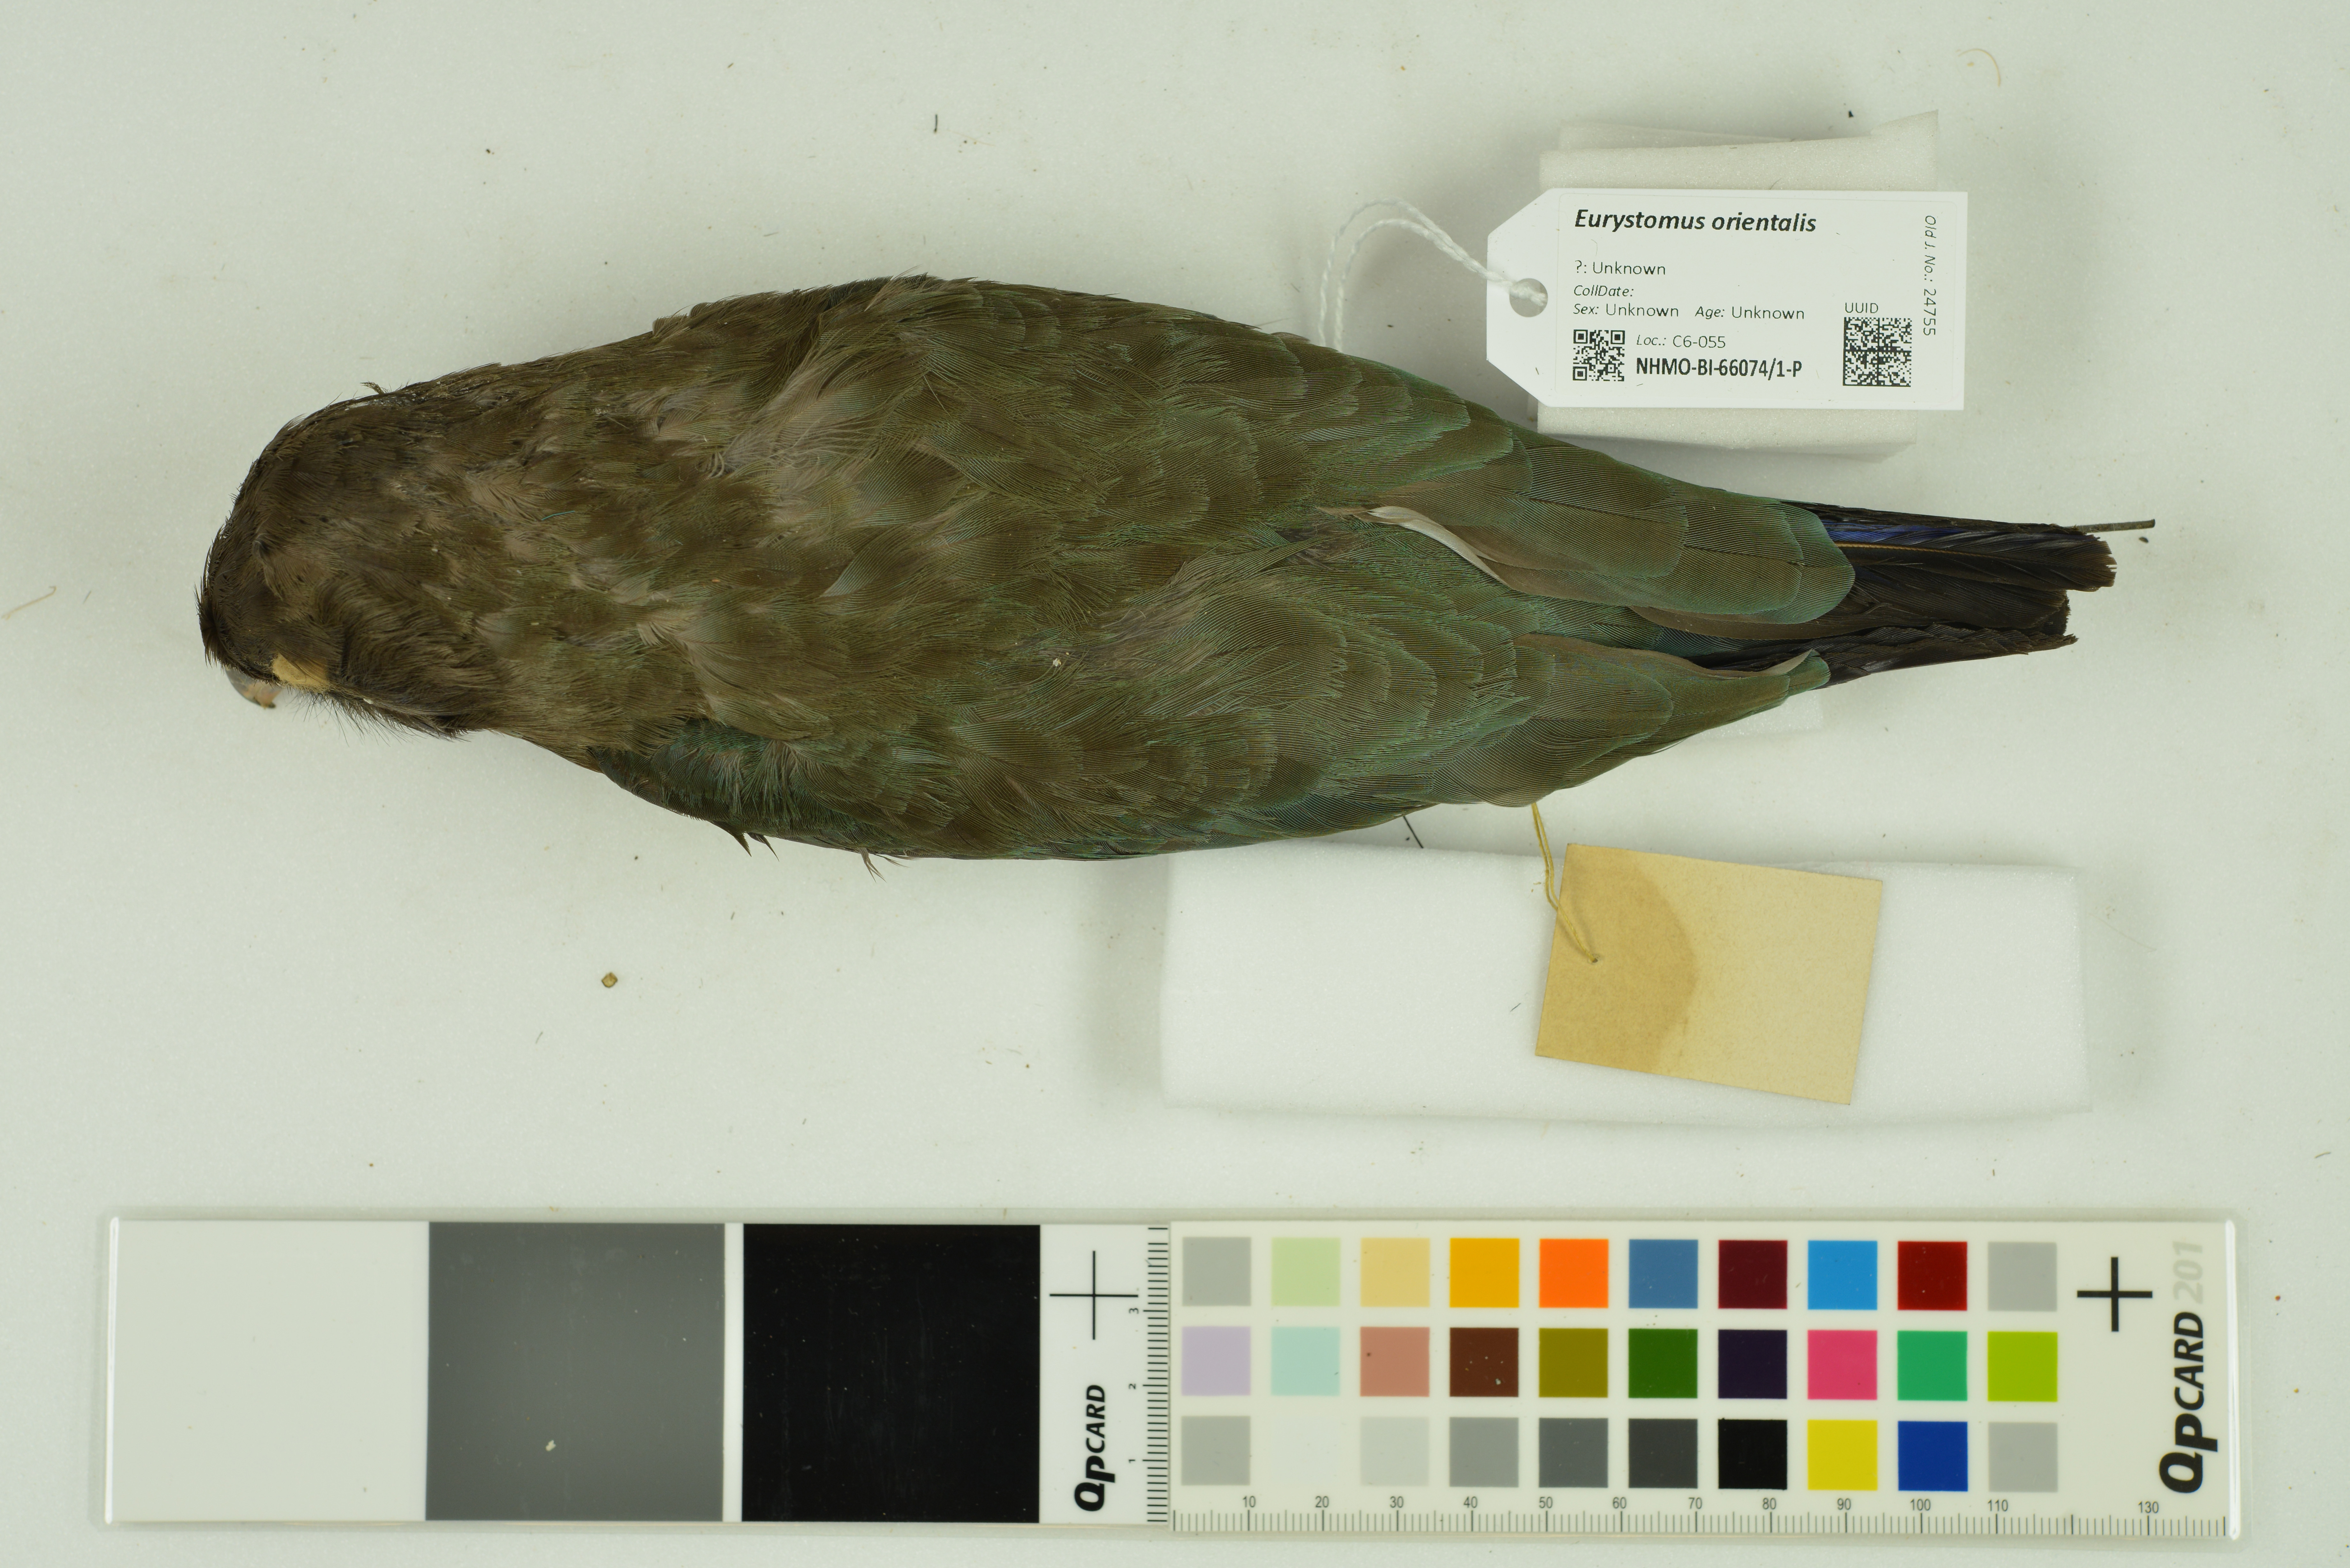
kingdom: Animalia
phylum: Chordata
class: Aves
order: Coraciiformes
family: Coraciidae
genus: Eurystomus
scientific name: Eurystomus orientalis
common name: Oriental dollarbird
